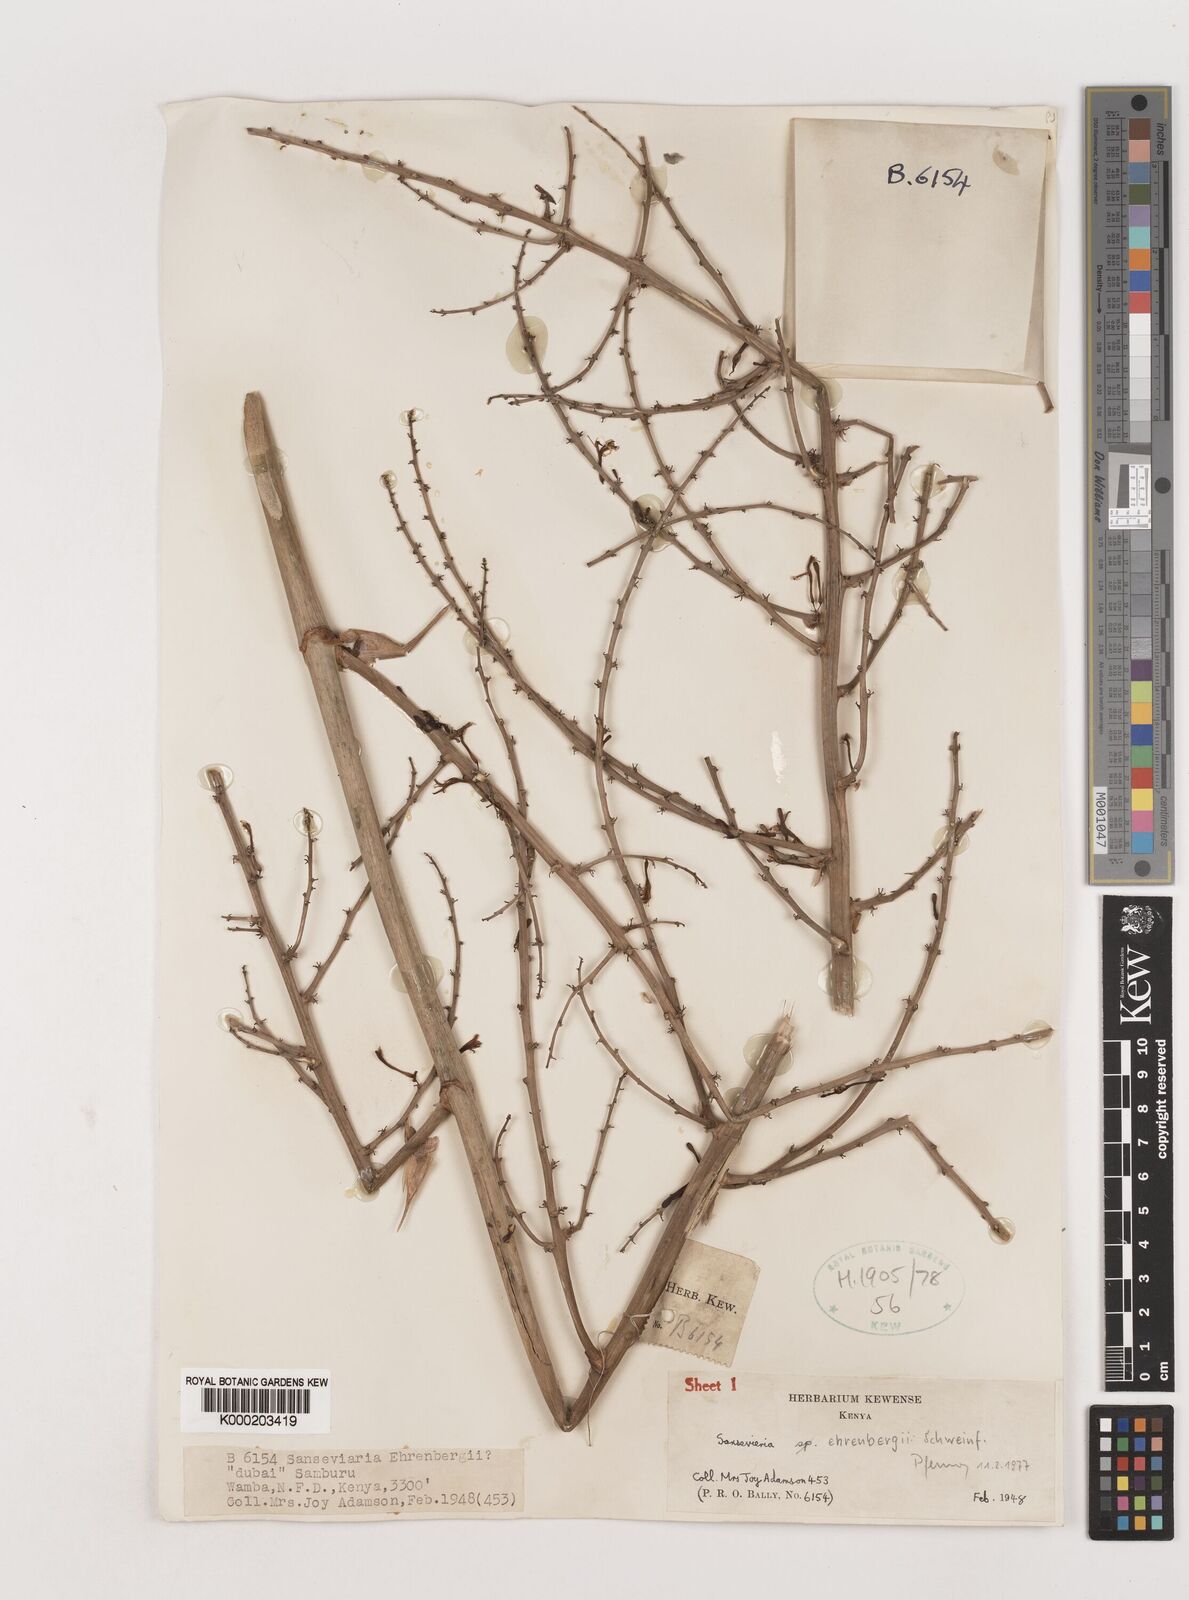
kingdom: Plantae
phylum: Tracheophyta
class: Liliopsida
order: Asparagales
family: Asparagaceae
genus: Dracaena
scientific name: Dracaena hanningtonii
